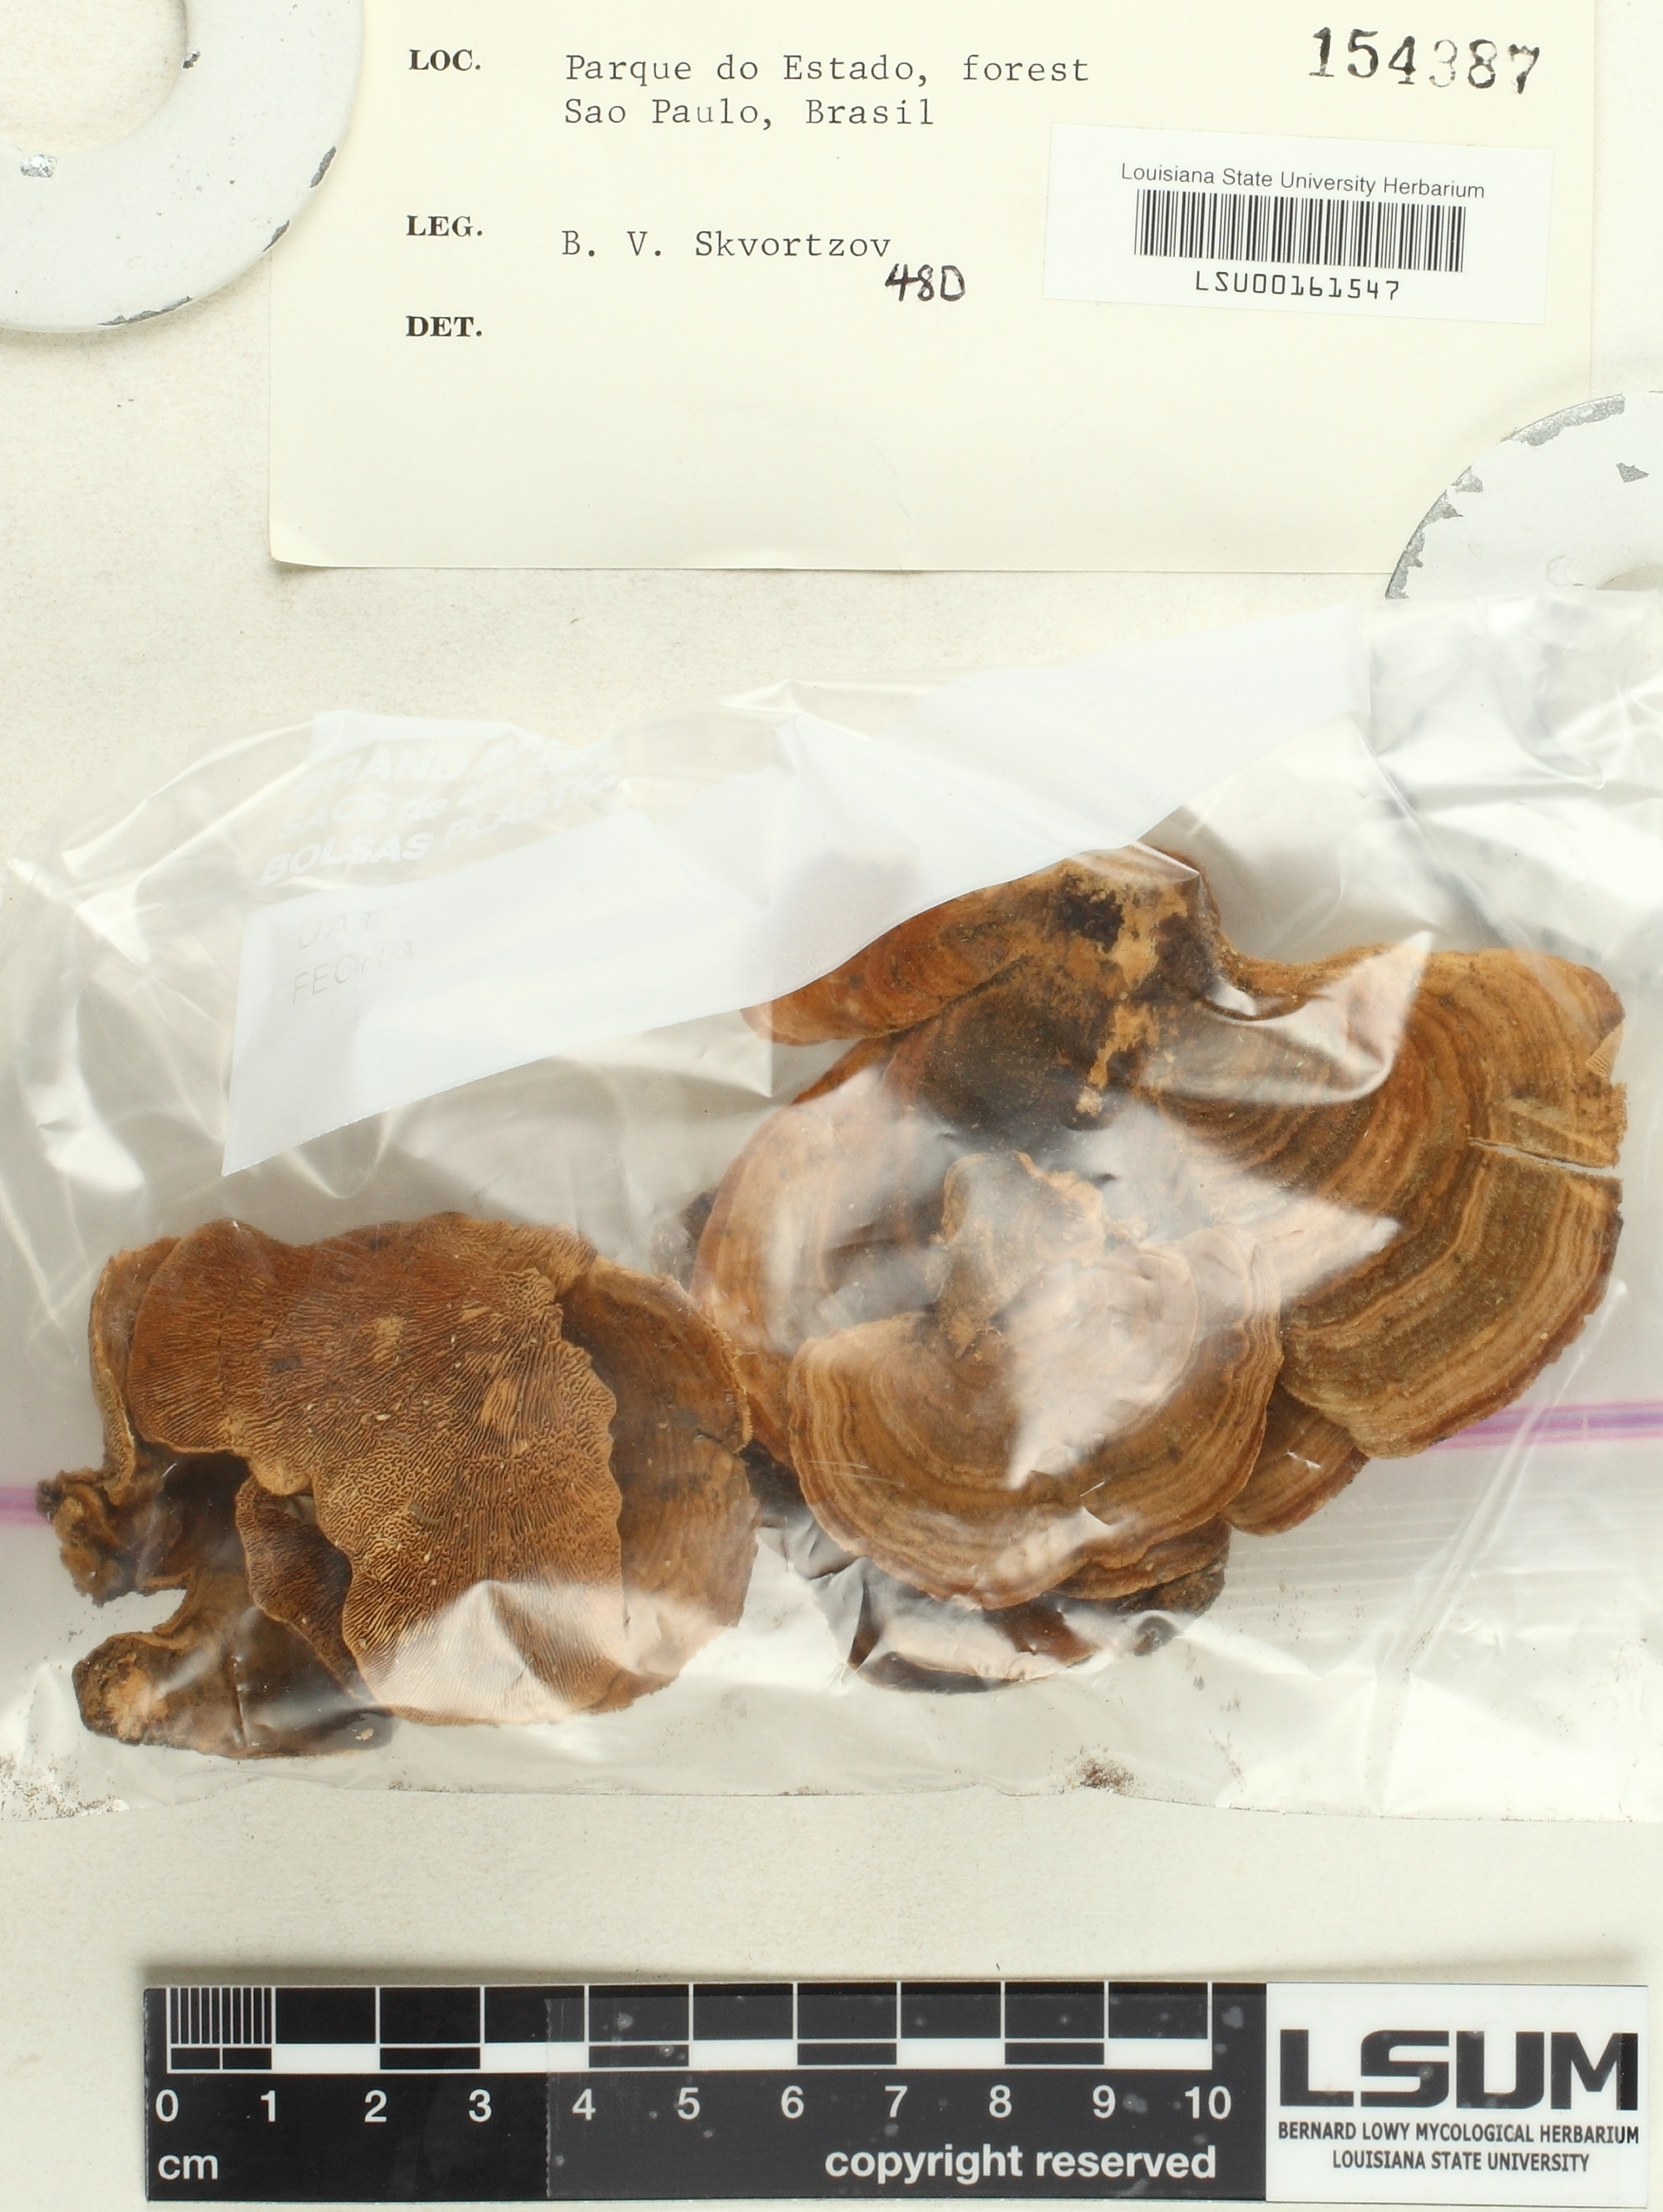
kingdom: Fungi
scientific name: Fungi
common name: Fungi
